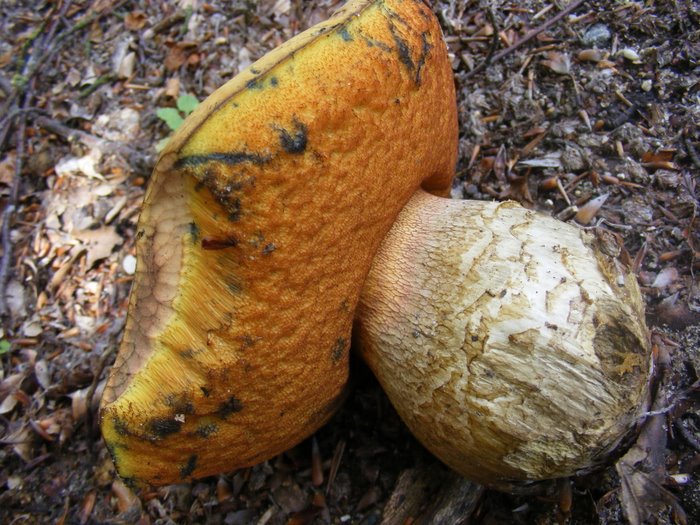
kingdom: Fungi
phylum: Basidiomycota
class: Agaricomycetes
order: Boletales
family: Boletaceae
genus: Suillellus
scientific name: Suillellus luridus
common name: netstokket indigorørhat
